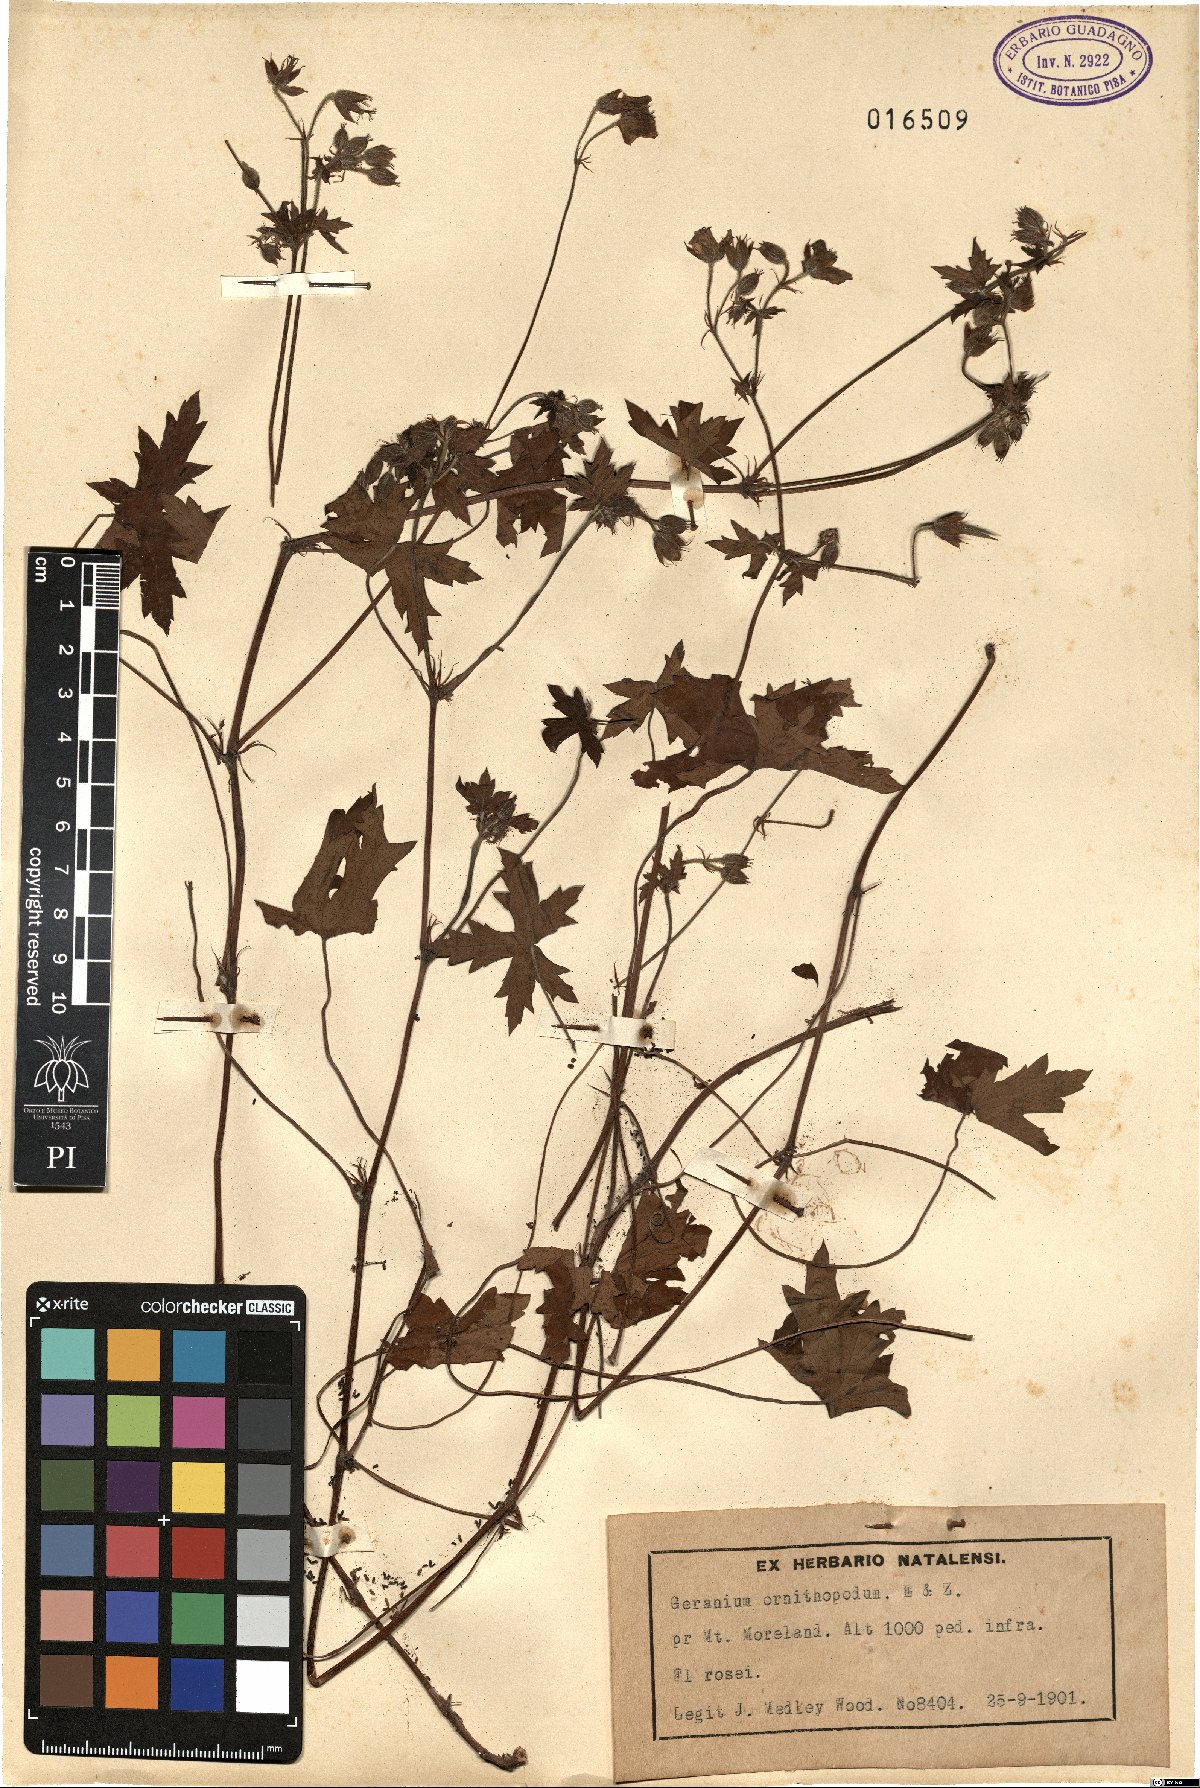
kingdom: Plantae
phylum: Tracheophyta
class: Magnoliopsida
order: Geraniales
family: Geraniaceae
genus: Geranium
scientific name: Geranium ornithopodon
